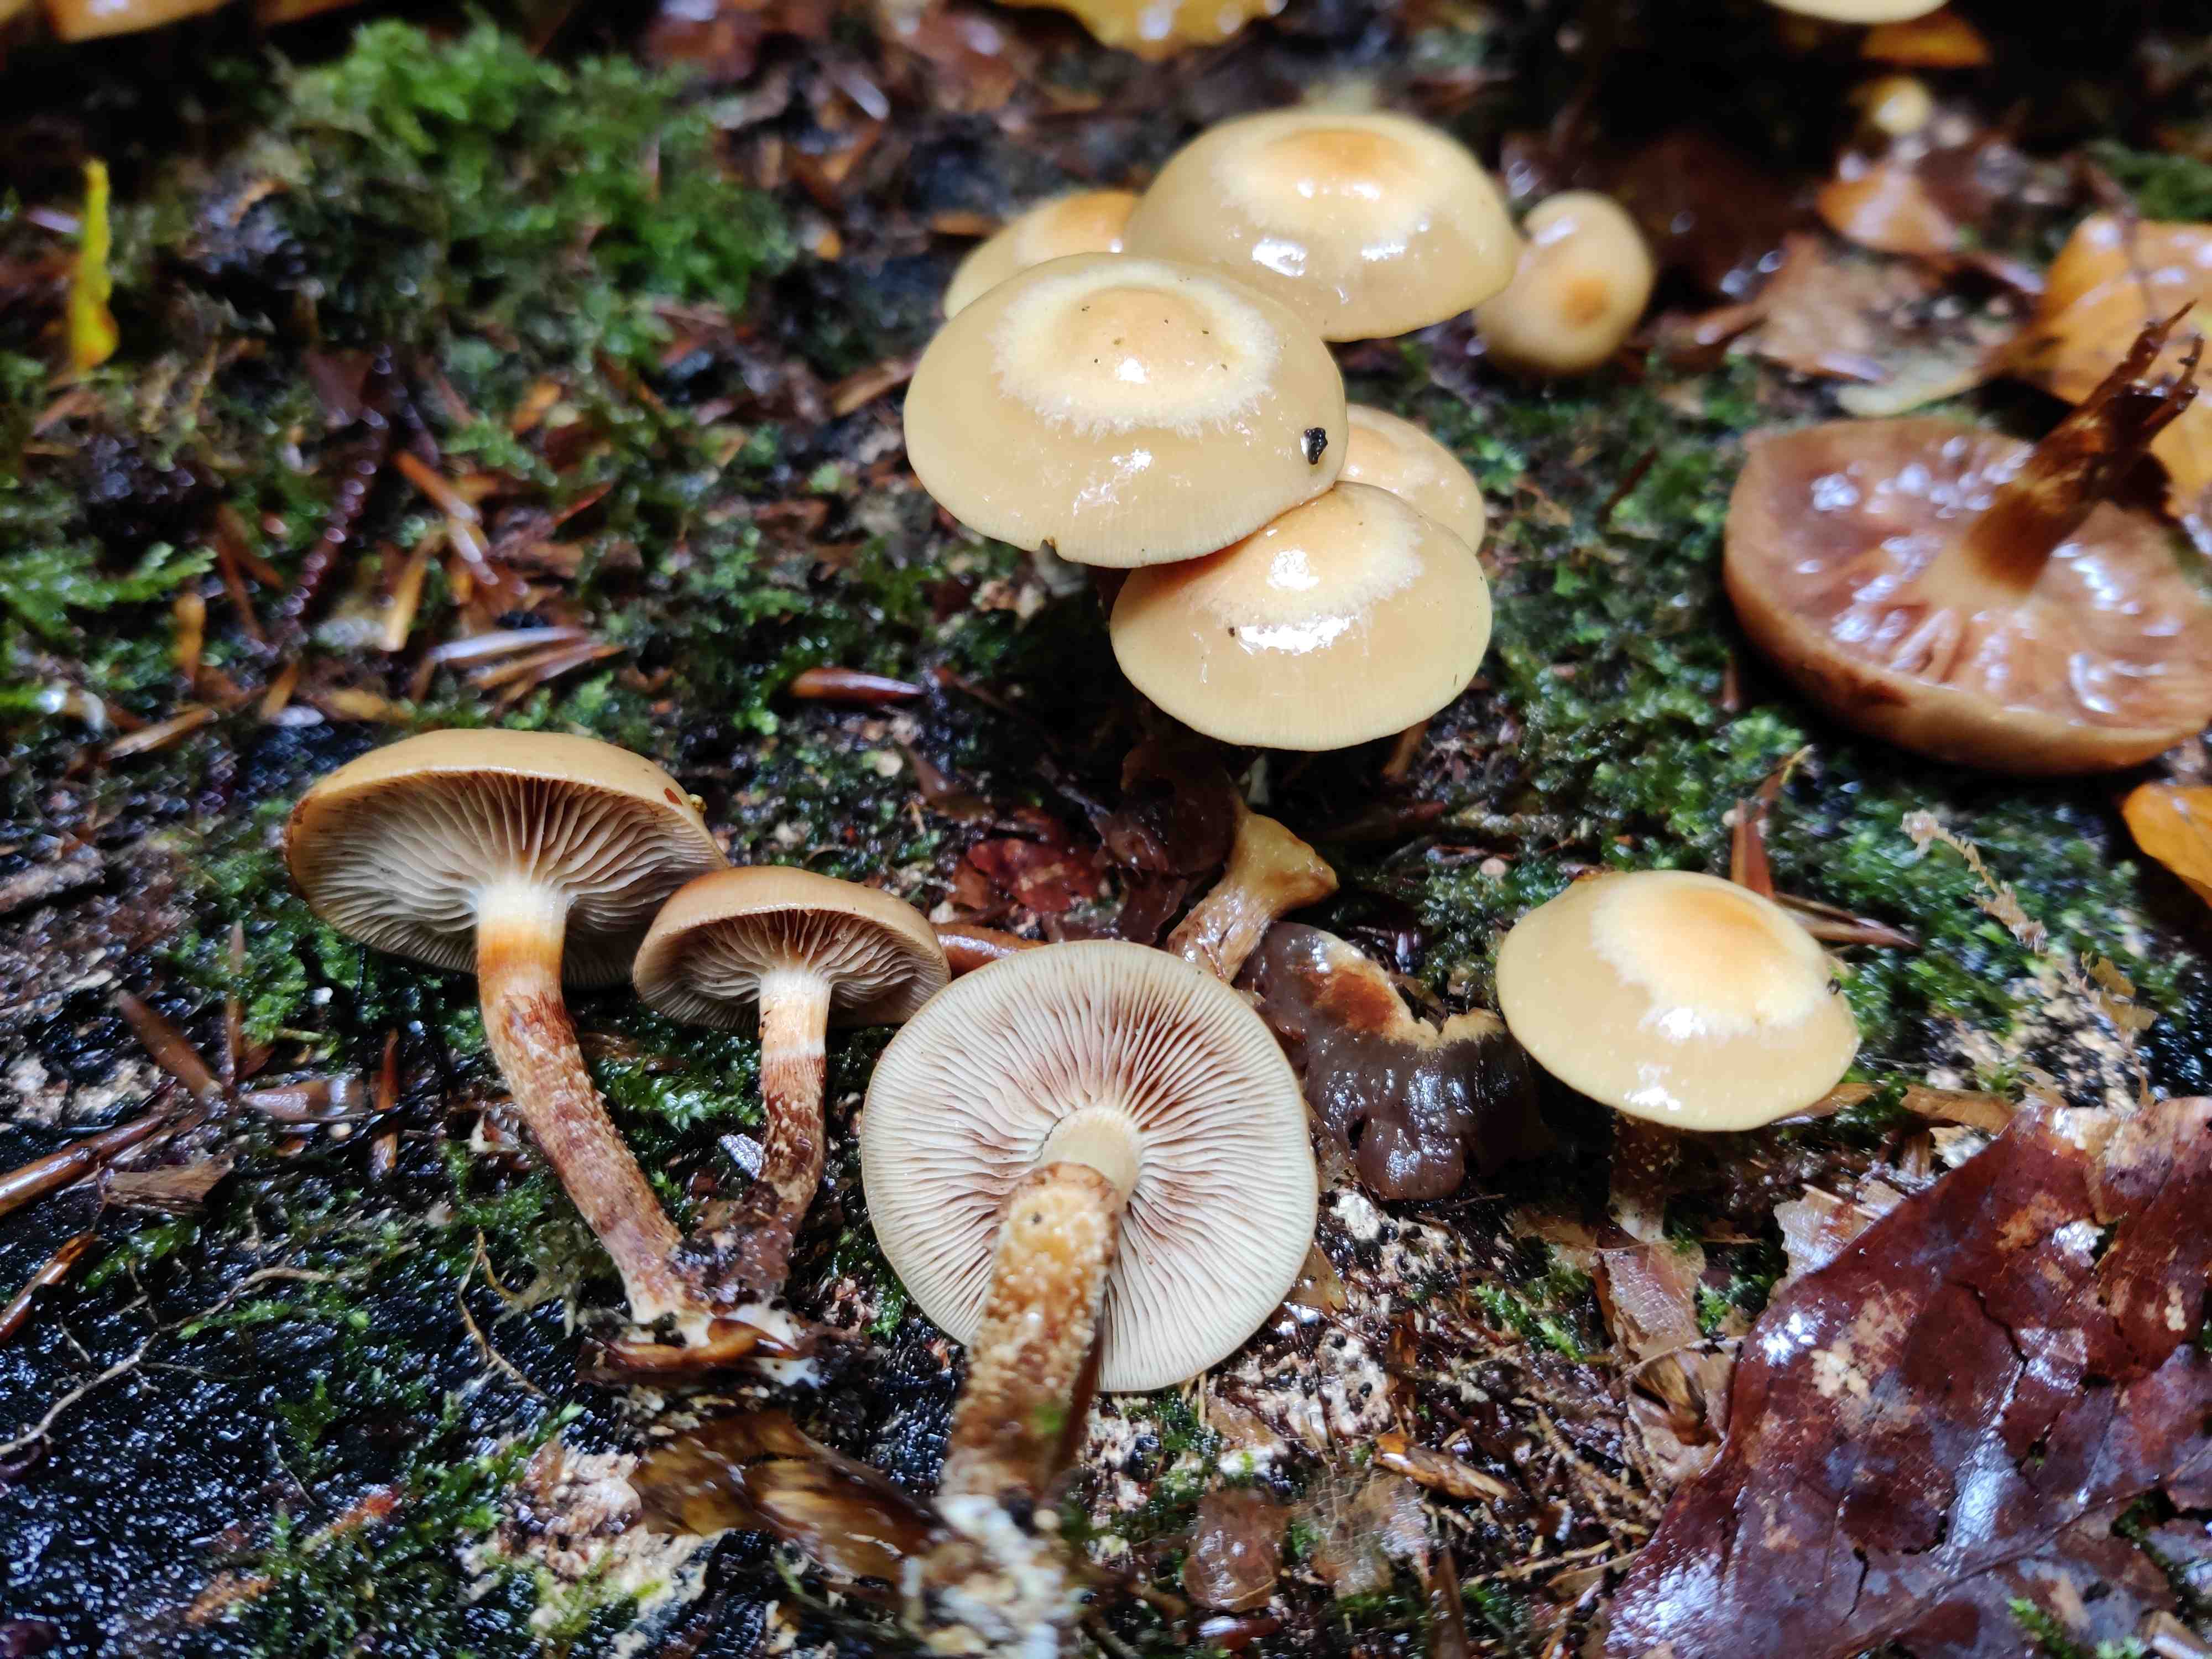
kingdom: Fungi
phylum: Basidiomycota
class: Agaricomycetes
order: Agaricales
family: Strophariaceae
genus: Kuehneromyces
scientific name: Kuehneromyces mutabilis
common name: foranderlig skælhat
